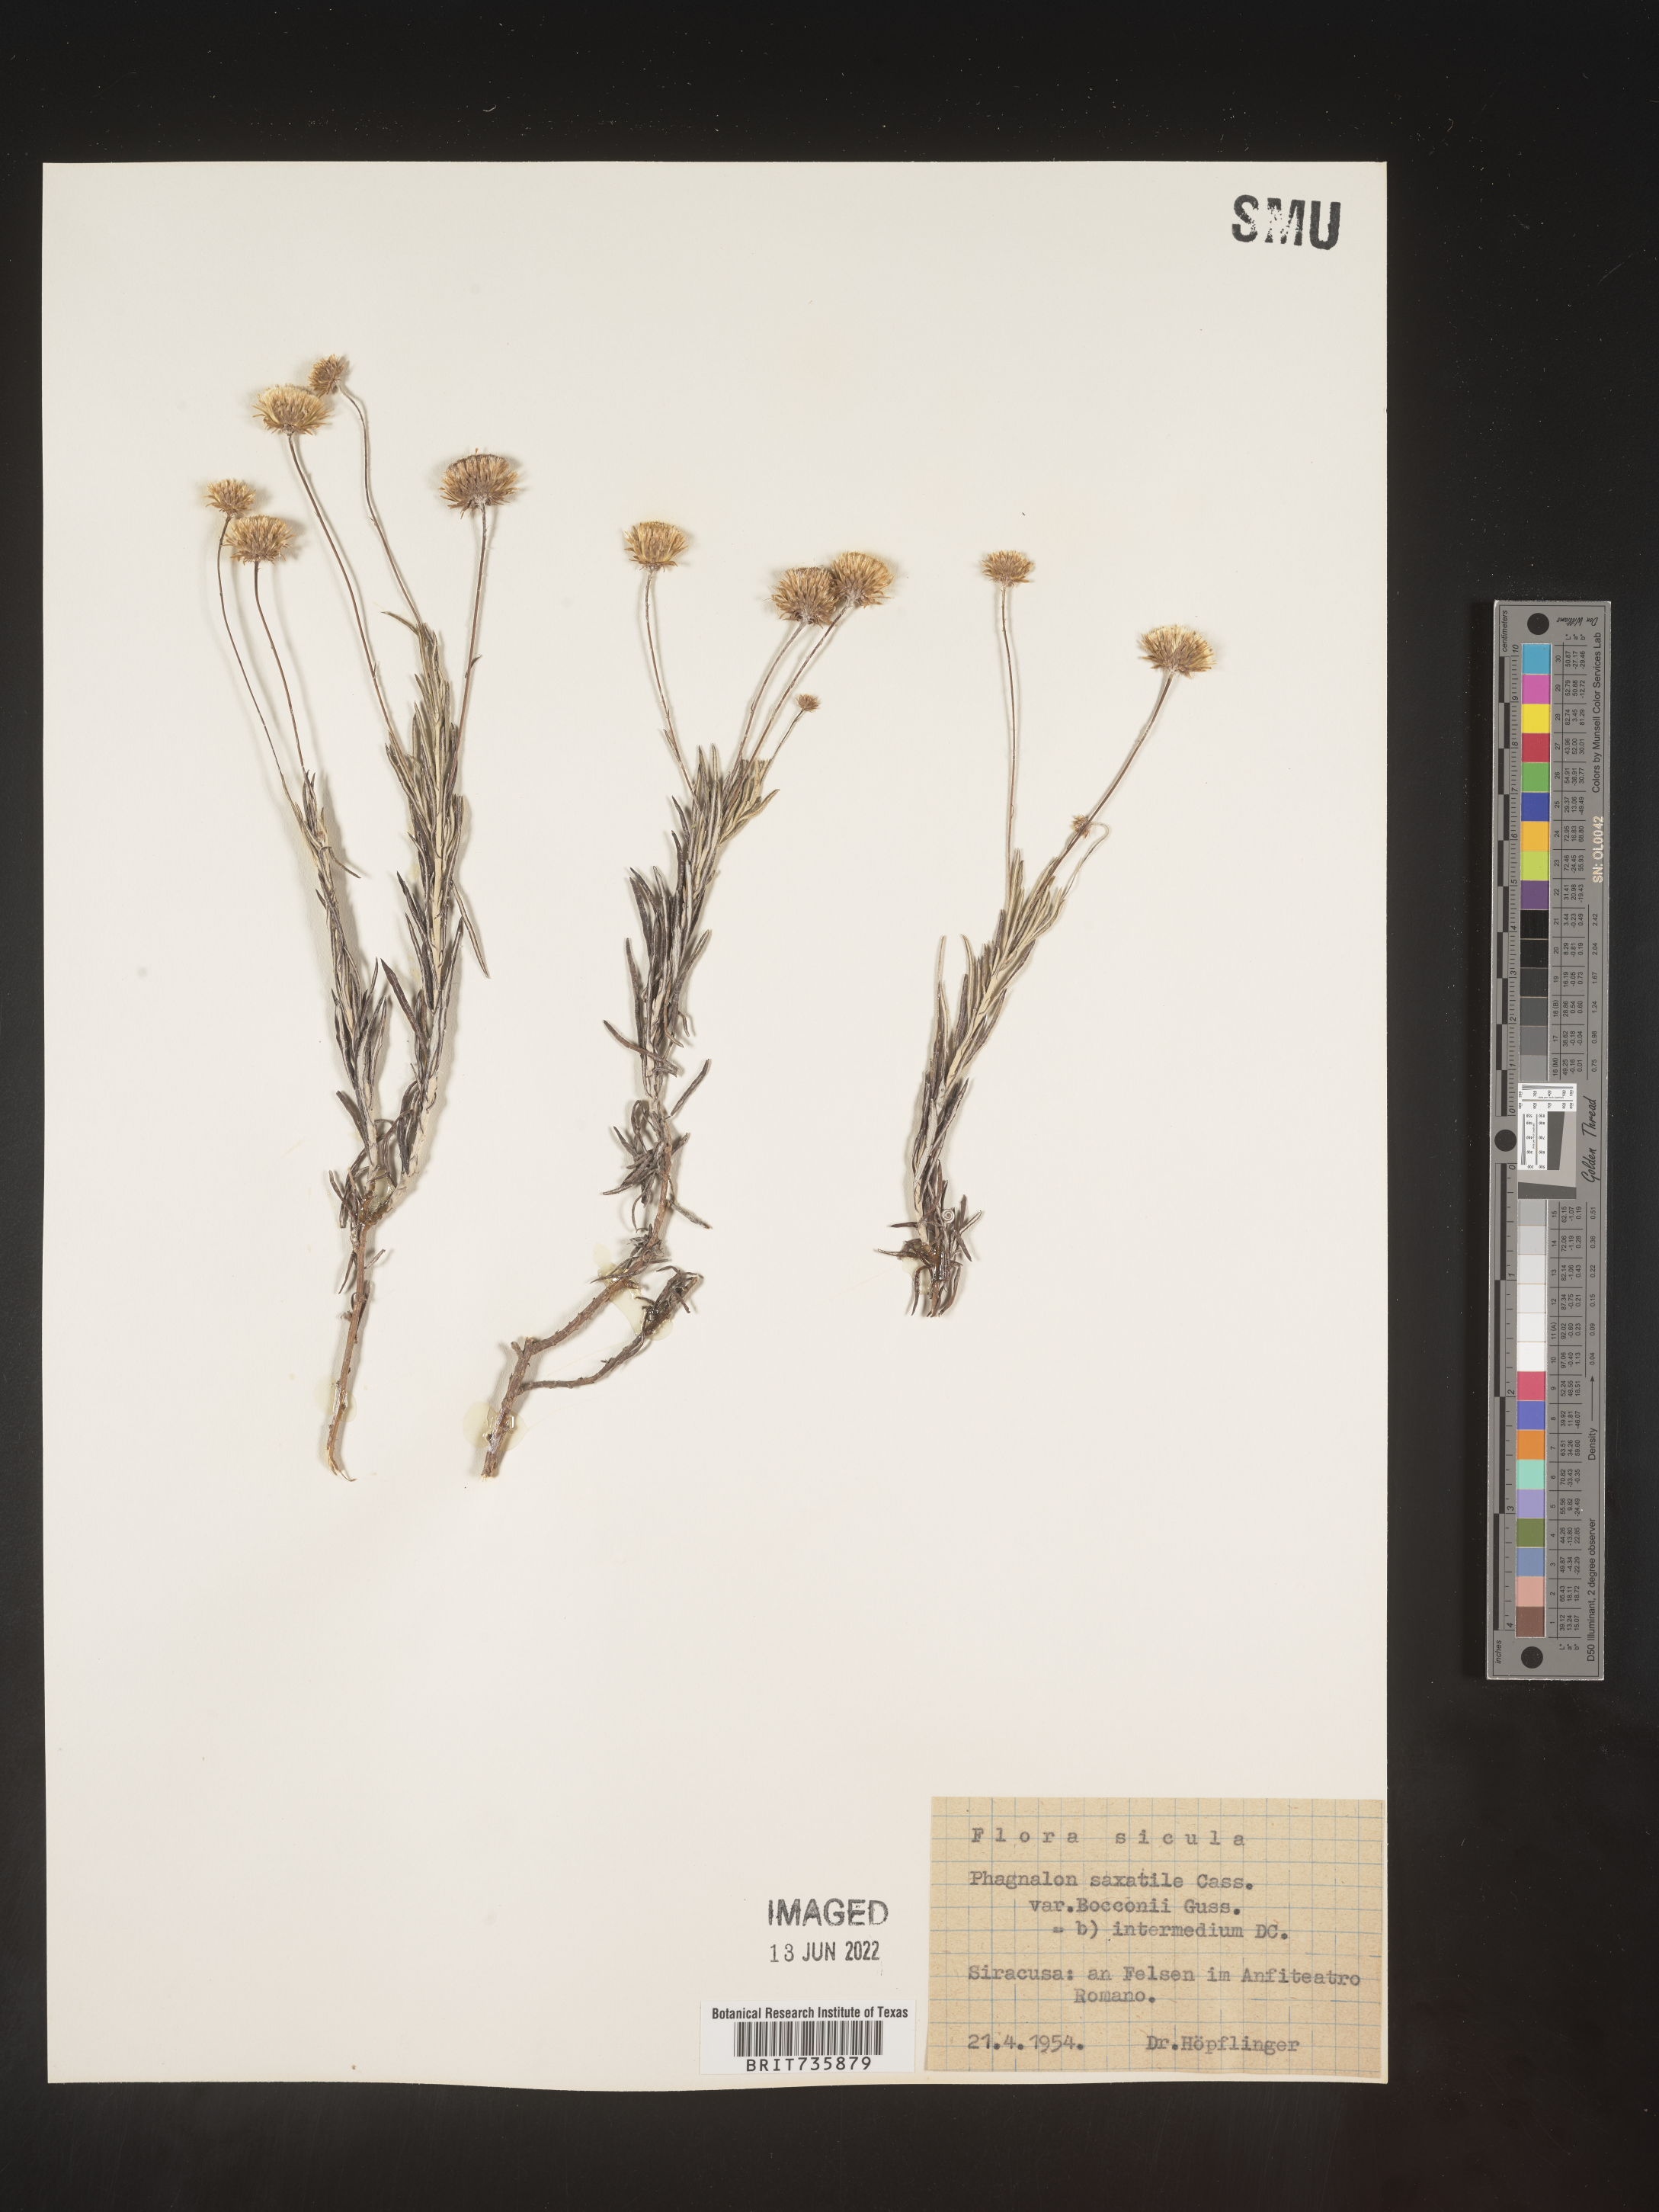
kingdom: Plantae
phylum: Tracheophyta
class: Magnoliopsida
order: Asterales
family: Asteraceae
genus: Phagnalon
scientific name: Phagnalon
